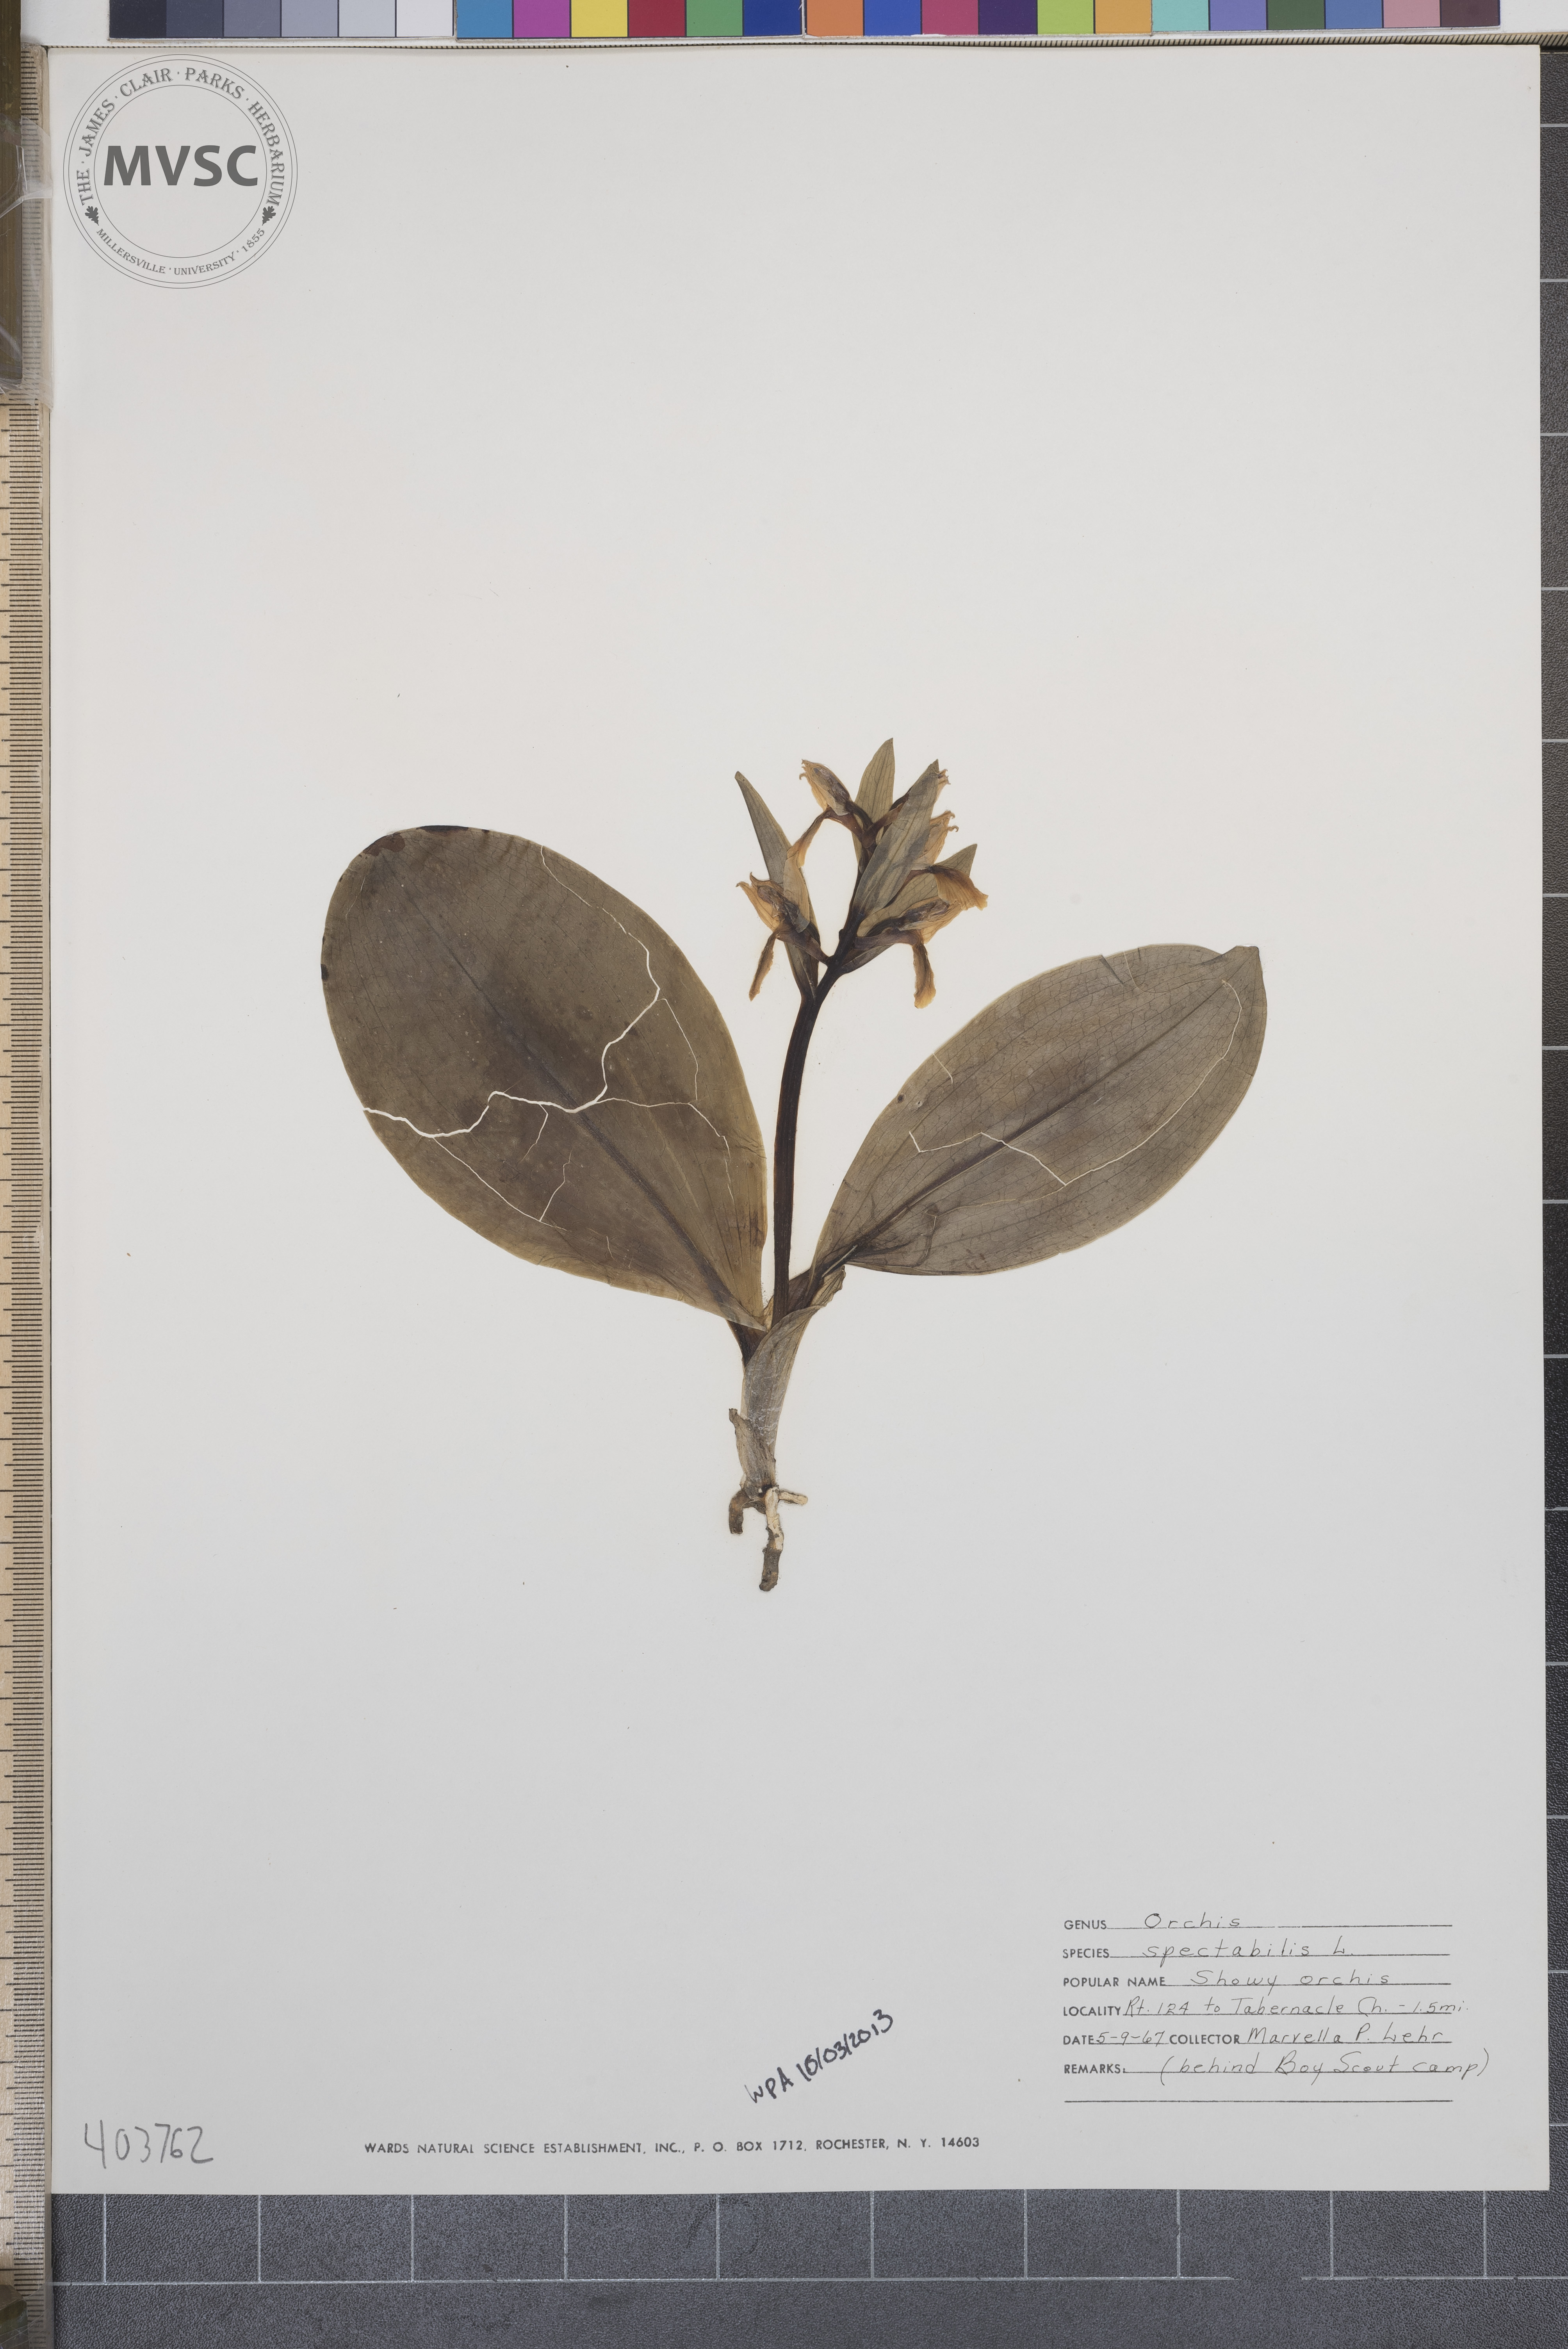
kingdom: Plantae
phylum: Tracheophyta
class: Liliopsida
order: Asparagales
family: Orchidaceae
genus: Galearis
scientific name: Galearis spectabilis
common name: Showy Orchis
